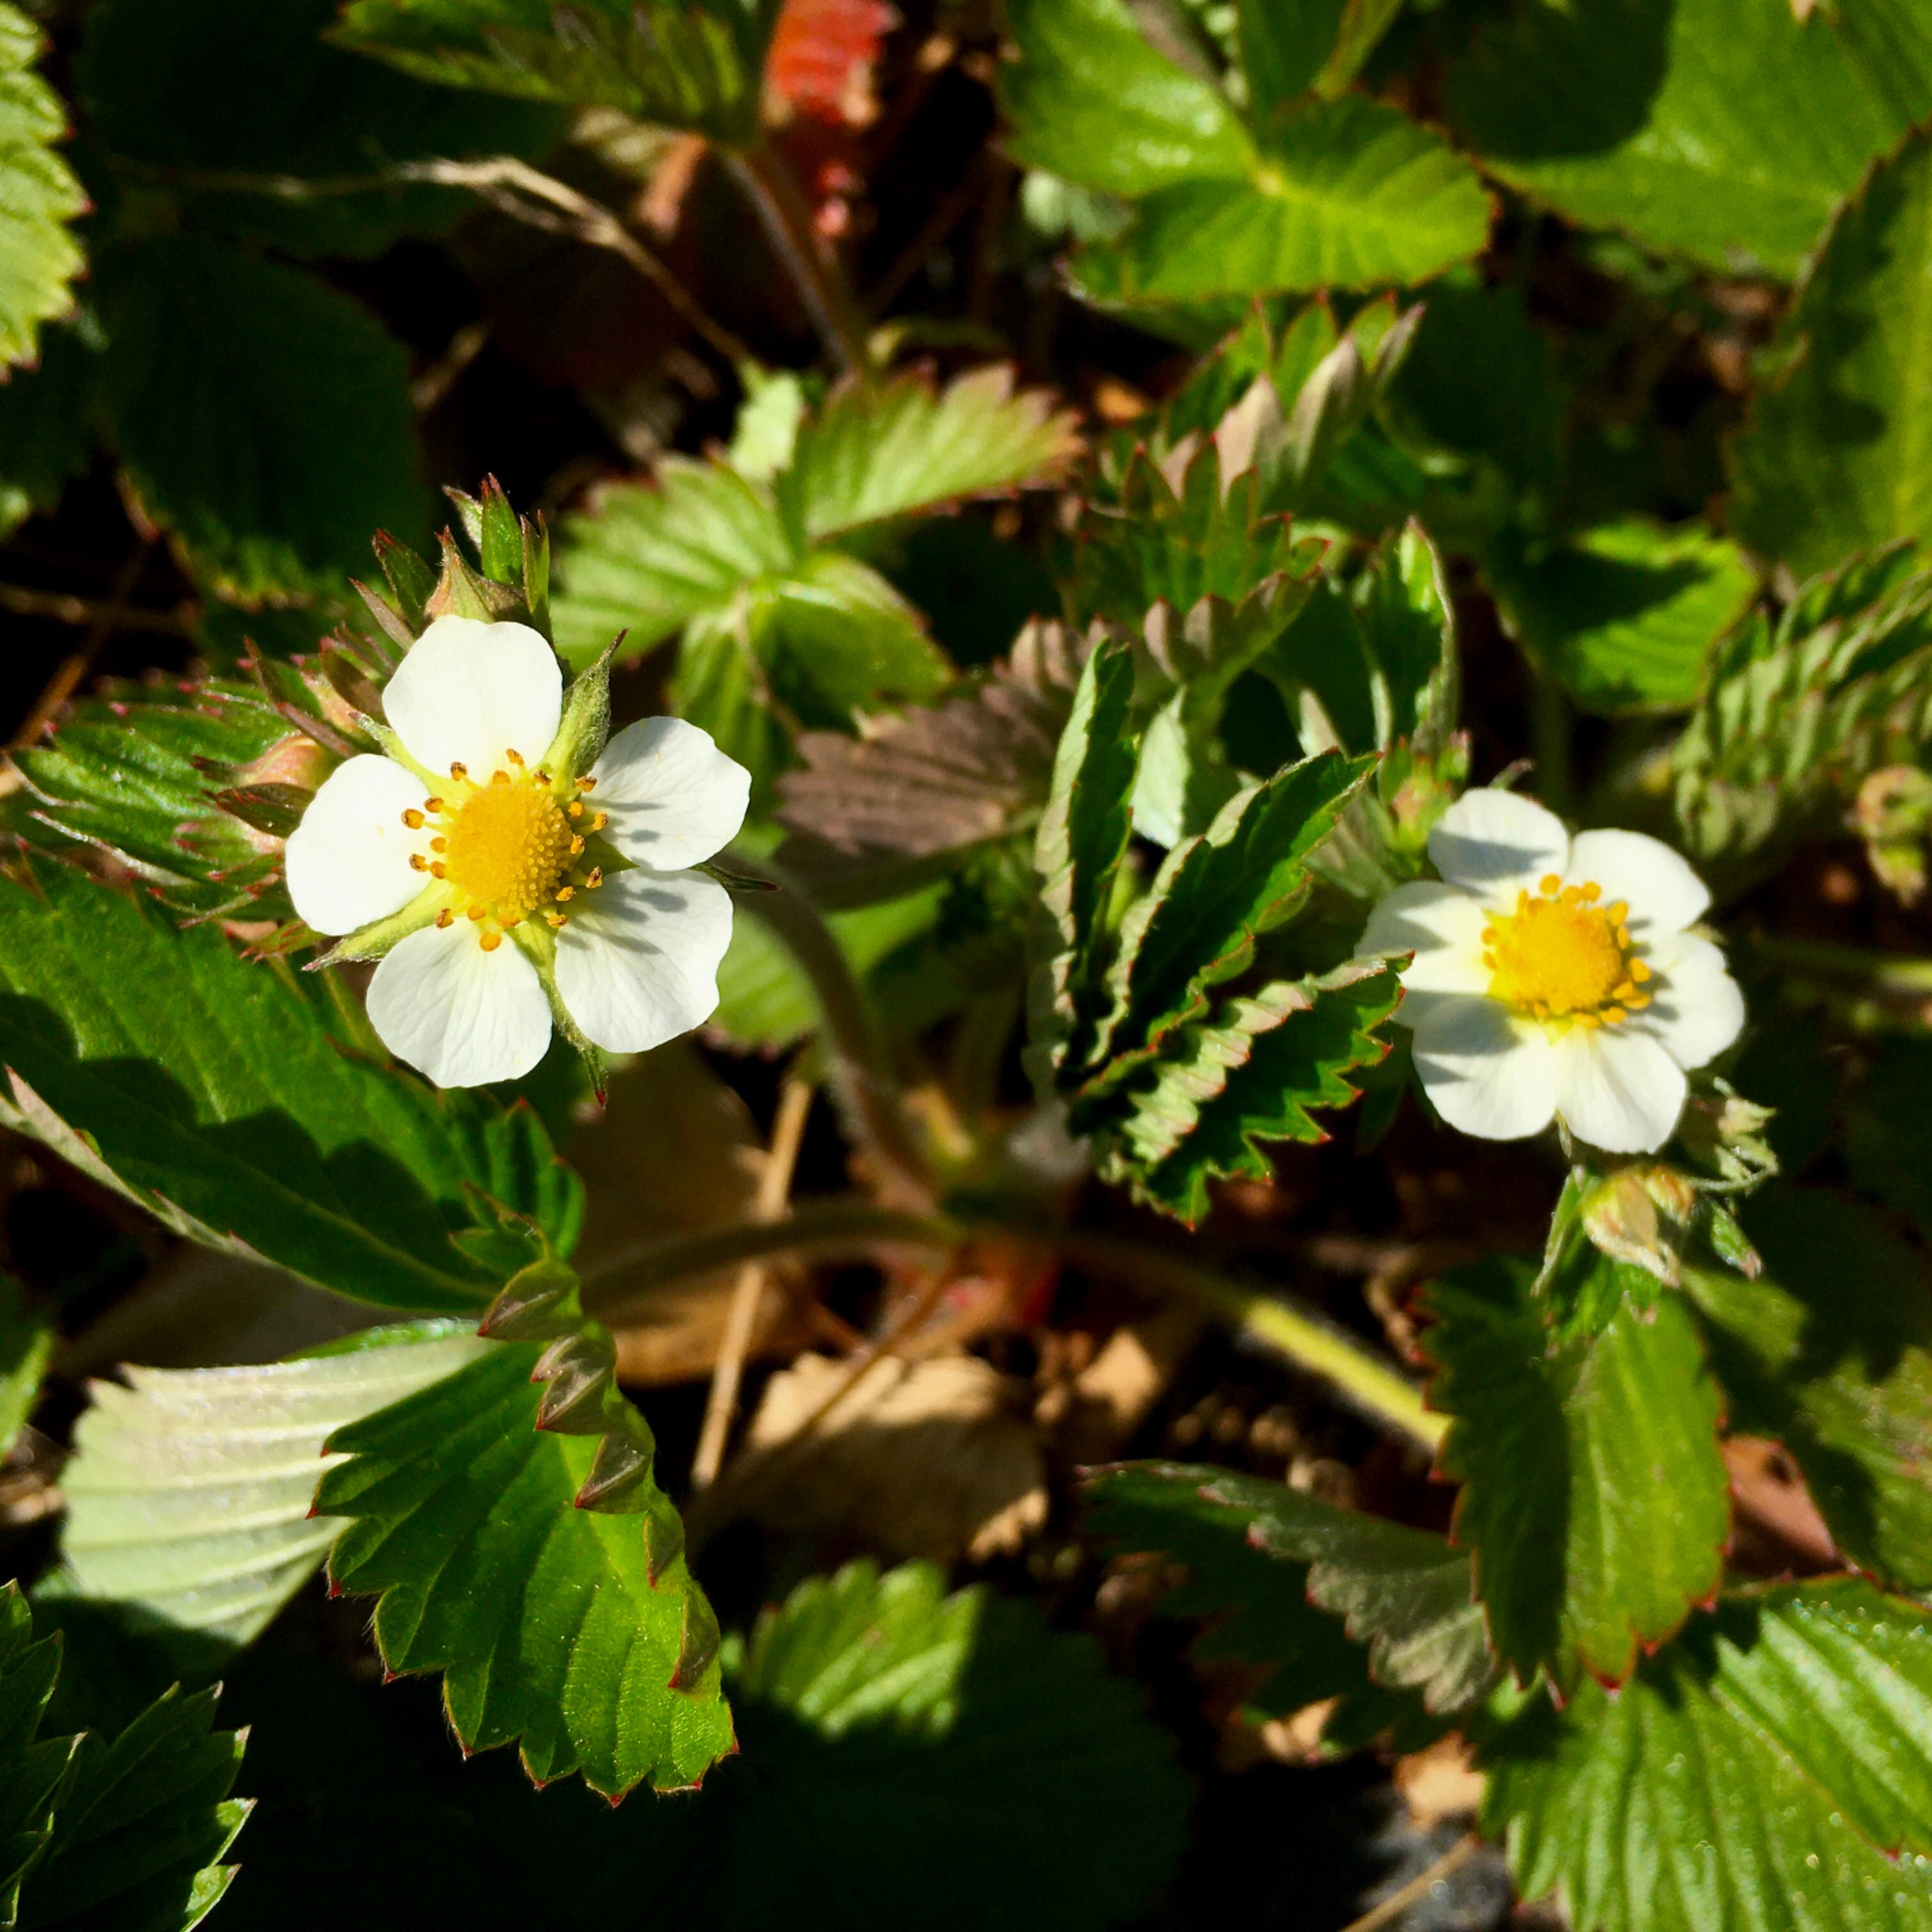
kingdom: Plantae
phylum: Tracheophyta
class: Magnoliopsida
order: Rosales
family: Rosaceae
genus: Fragaria
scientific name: Fragaria vesca
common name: Skov-jordbær
